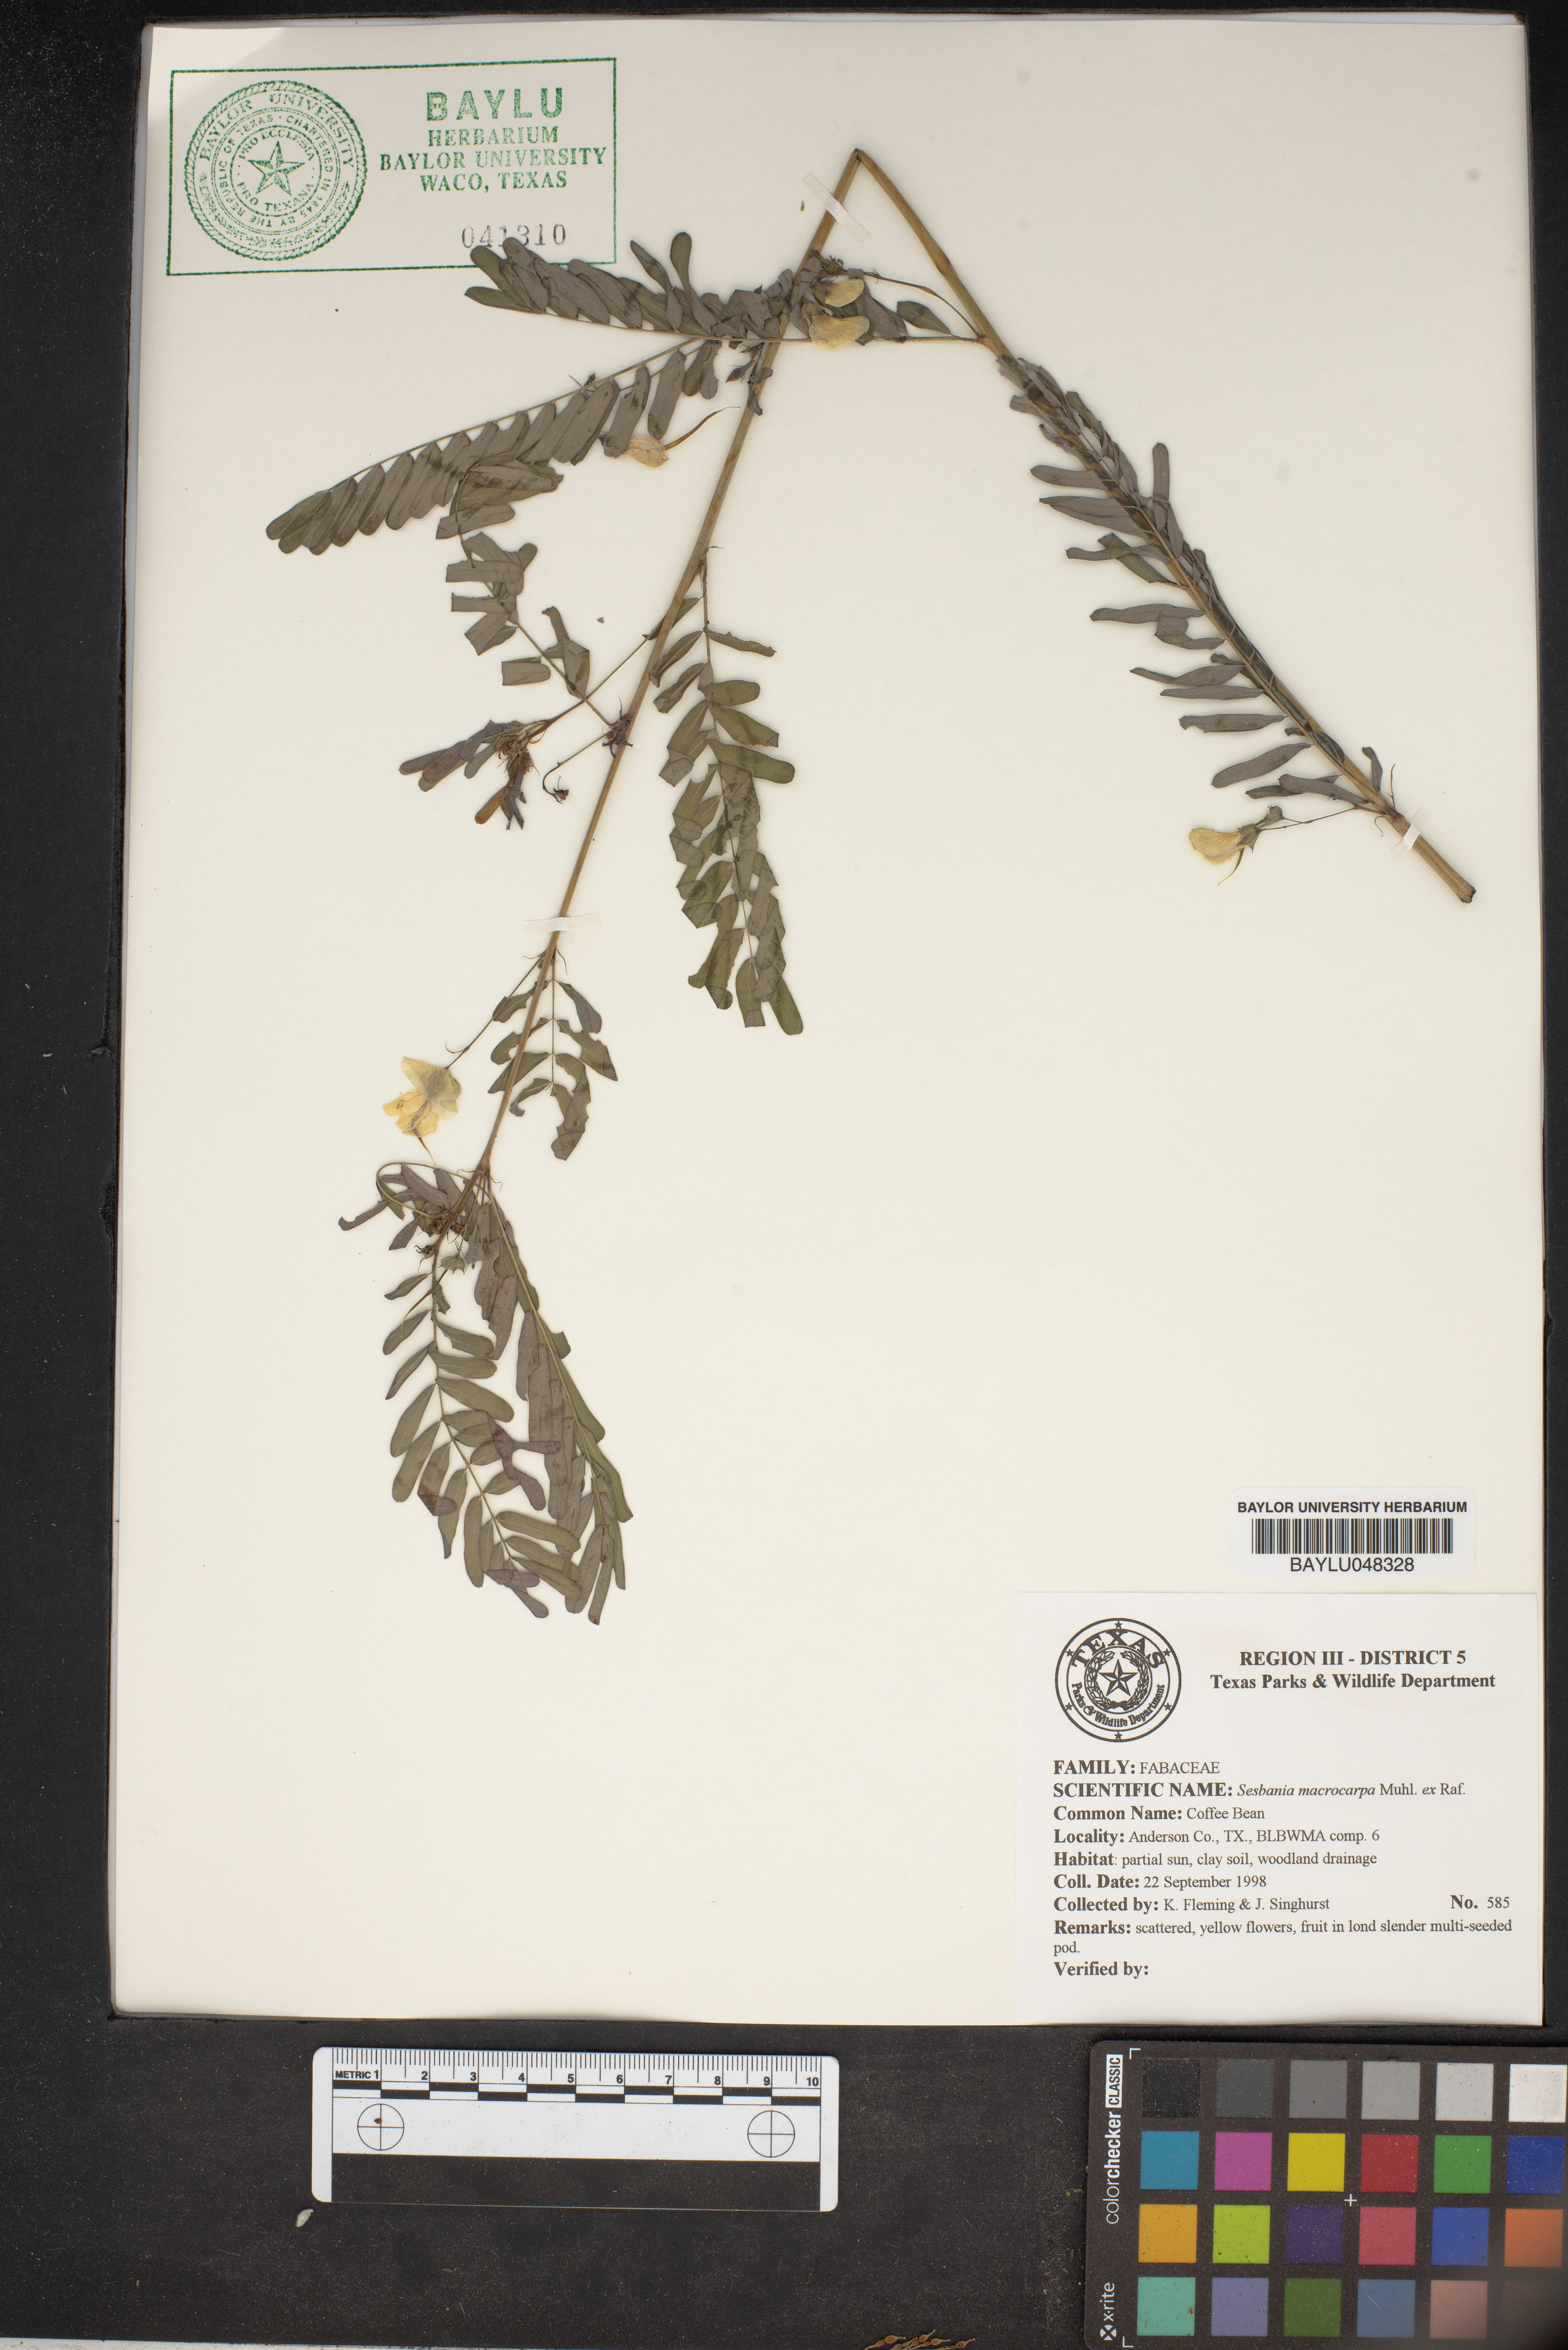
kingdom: Plantae
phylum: Tracheophyta
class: Magnoliopsida
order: Fabales
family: Fabaceae
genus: Sesbania
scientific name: Sesbania vesicaria
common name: Bagpod
